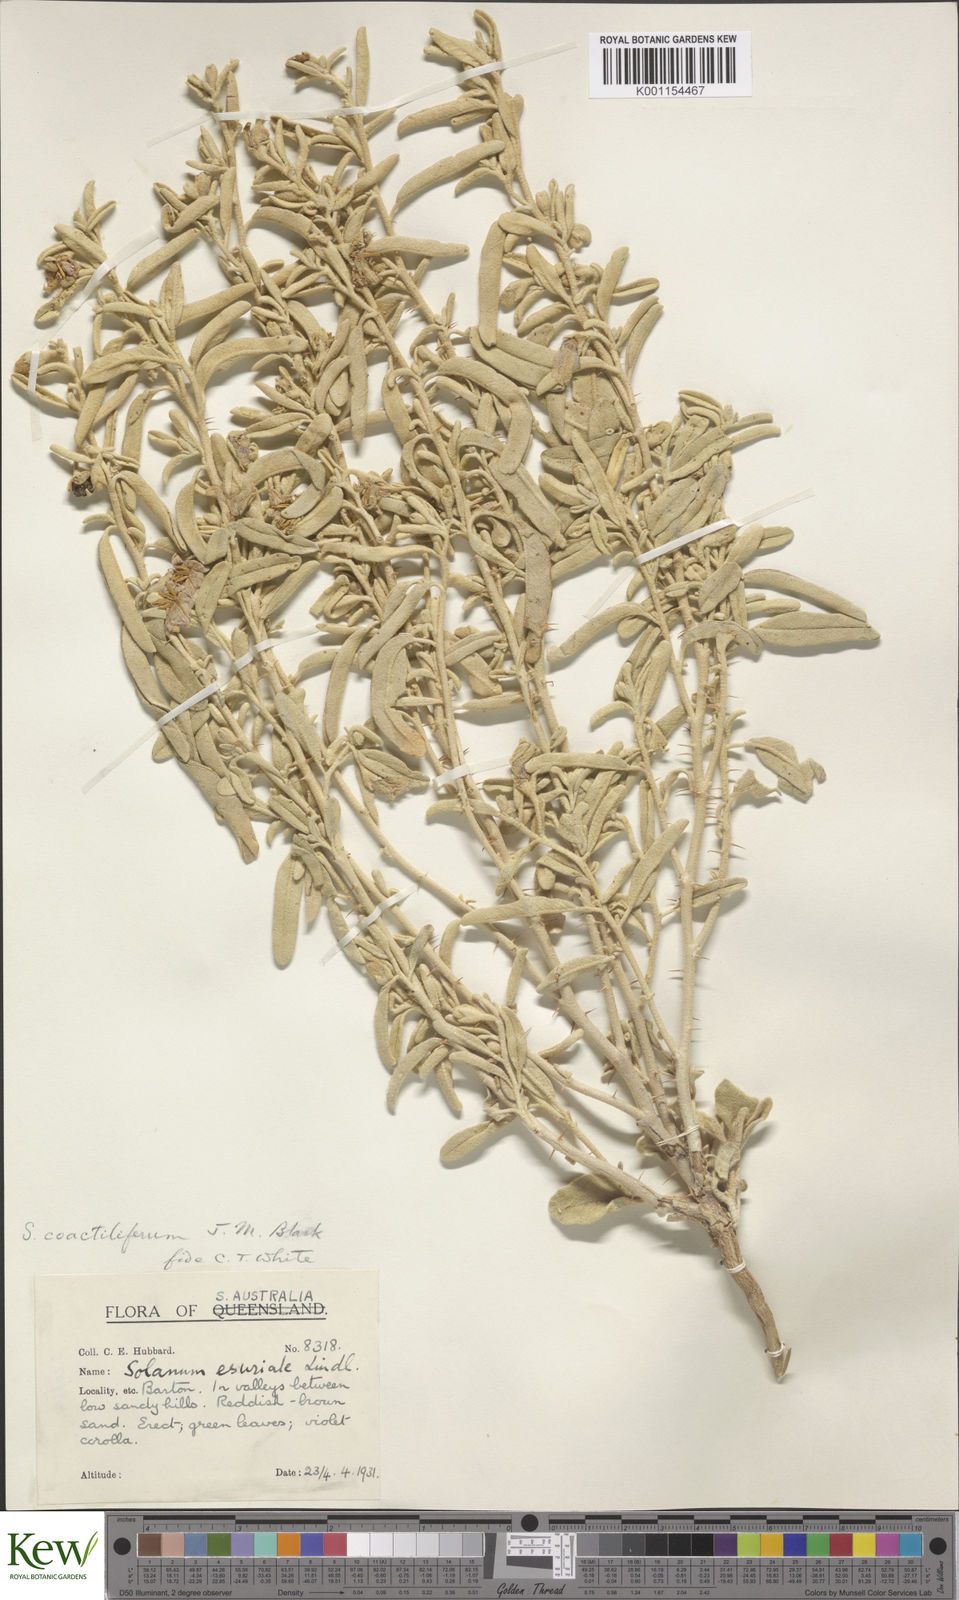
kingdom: Plantae
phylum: Tracheophyta
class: Magnoliopsida
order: Solanales
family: Solanaceae
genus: Solanum
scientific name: Solanum coactiliferum
